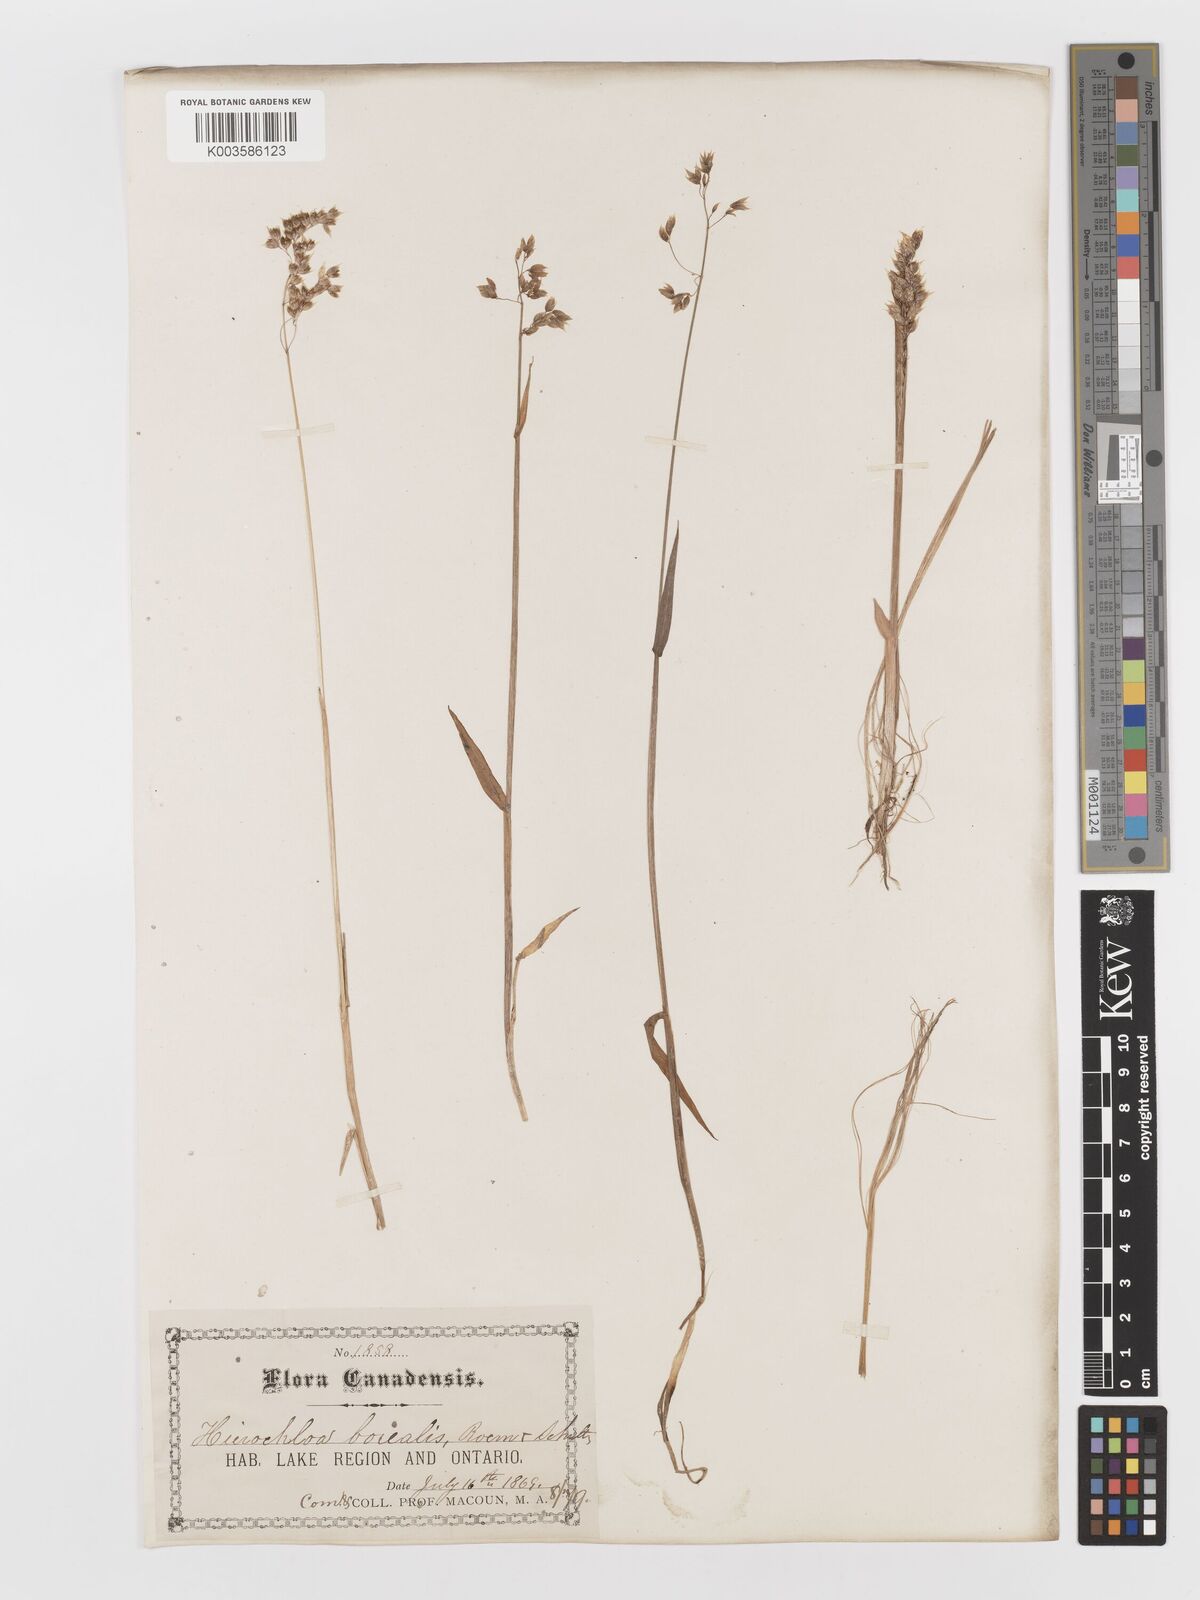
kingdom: Plantae
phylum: Tracheophyta
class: Liliopsida
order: Poales
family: Poaceae
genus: Anthoxanthum
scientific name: Anthoxanthum nitens
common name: Holy grass
